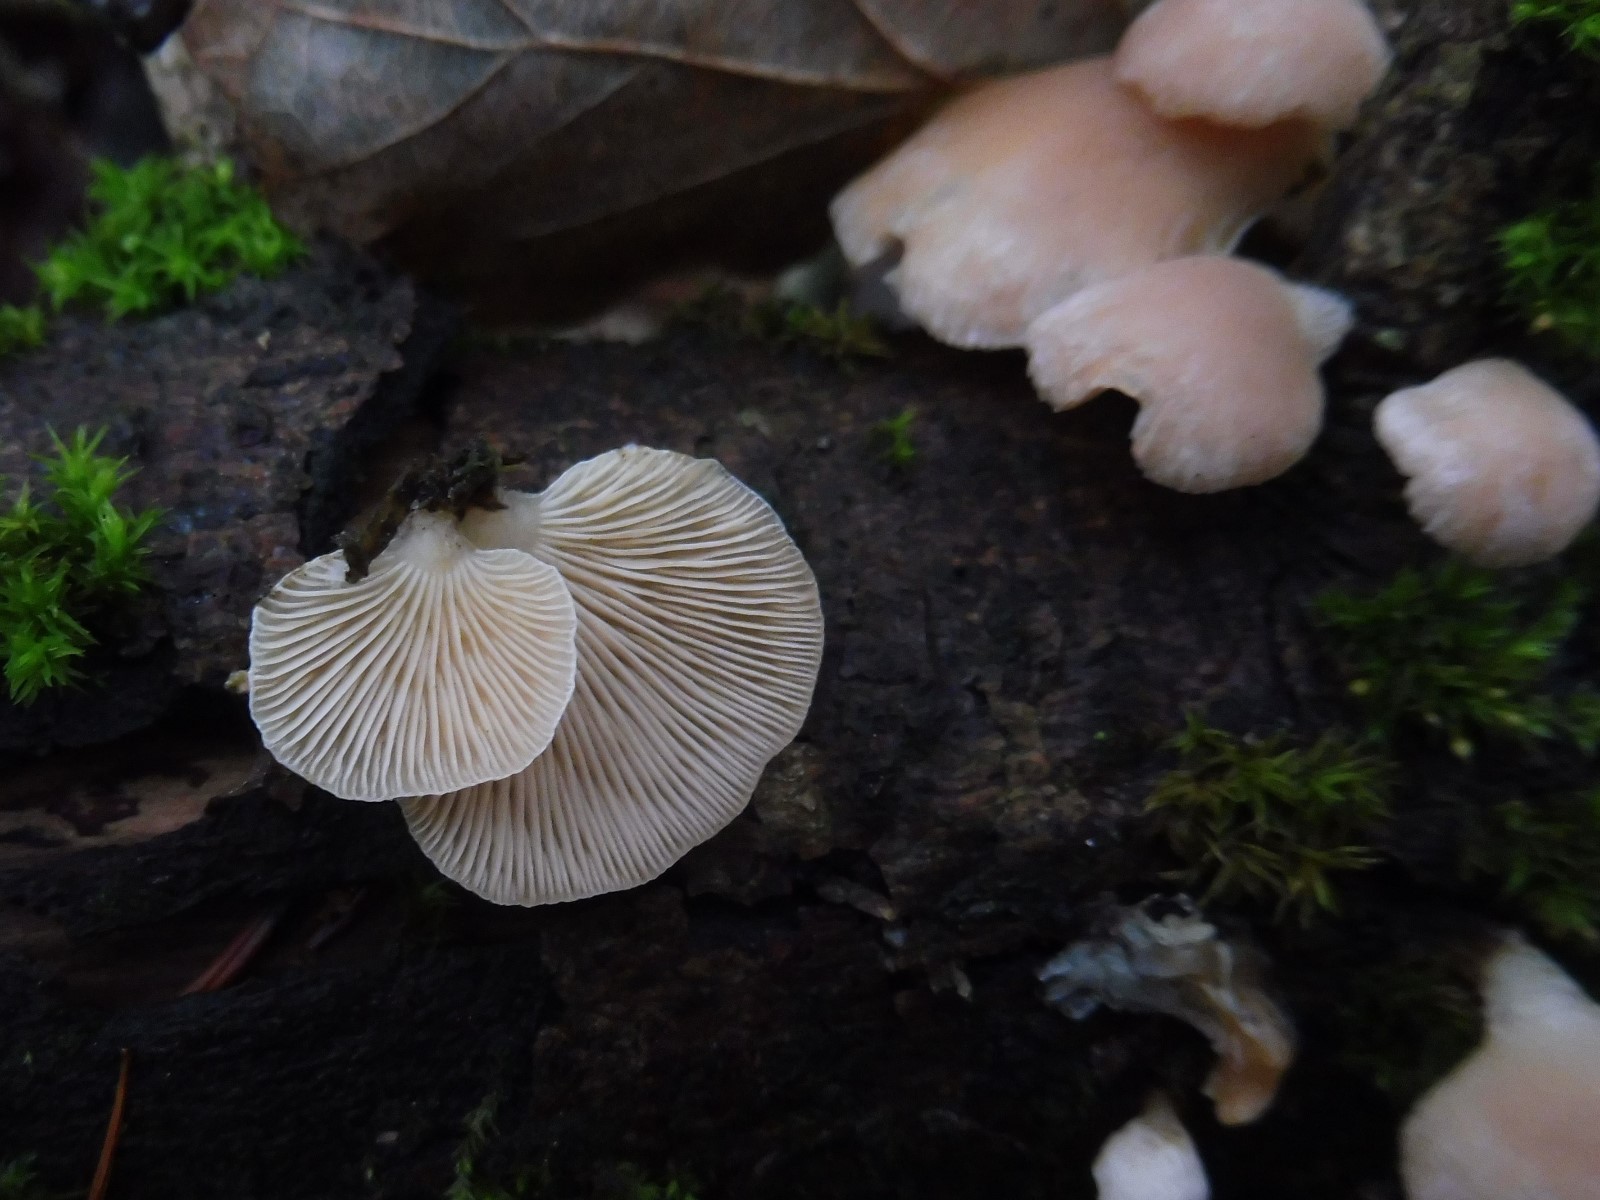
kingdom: Fungi
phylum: Basidiomycota
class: Agaricomycetes
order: Agaricales
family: Mycenaceae
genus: Panellus
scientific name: Panellus mitis
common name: mild epaulethat
